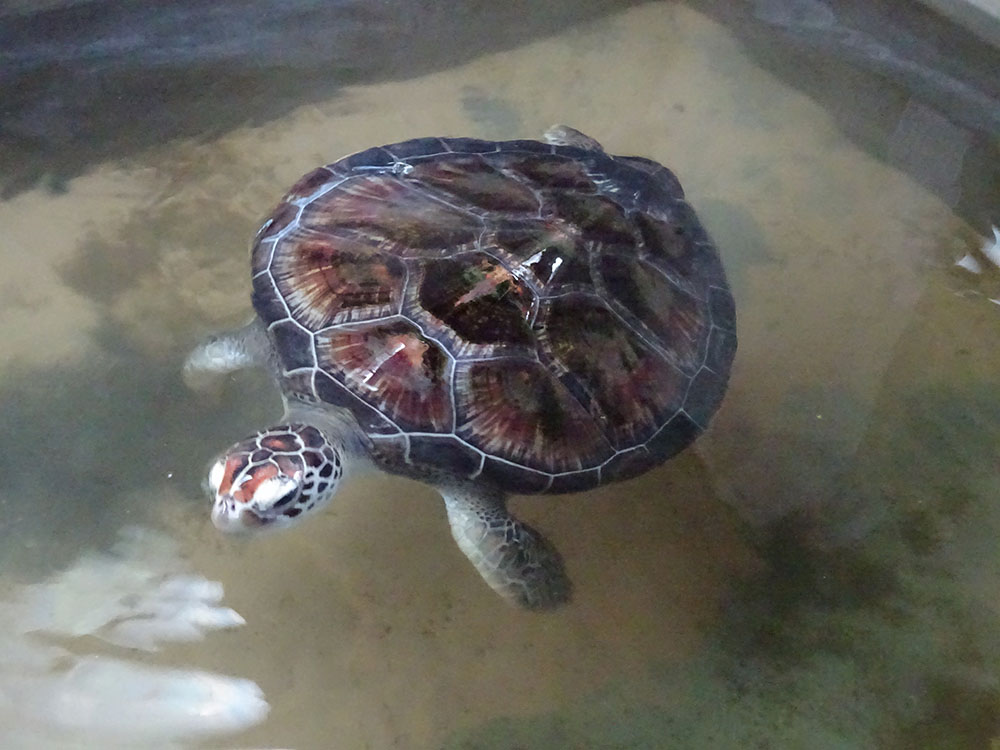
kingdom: Animalia
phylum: Chordata
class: Testudines
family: Cheloniidae
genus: Chelonia
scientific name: Chelonia mydas
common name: Green turtle
